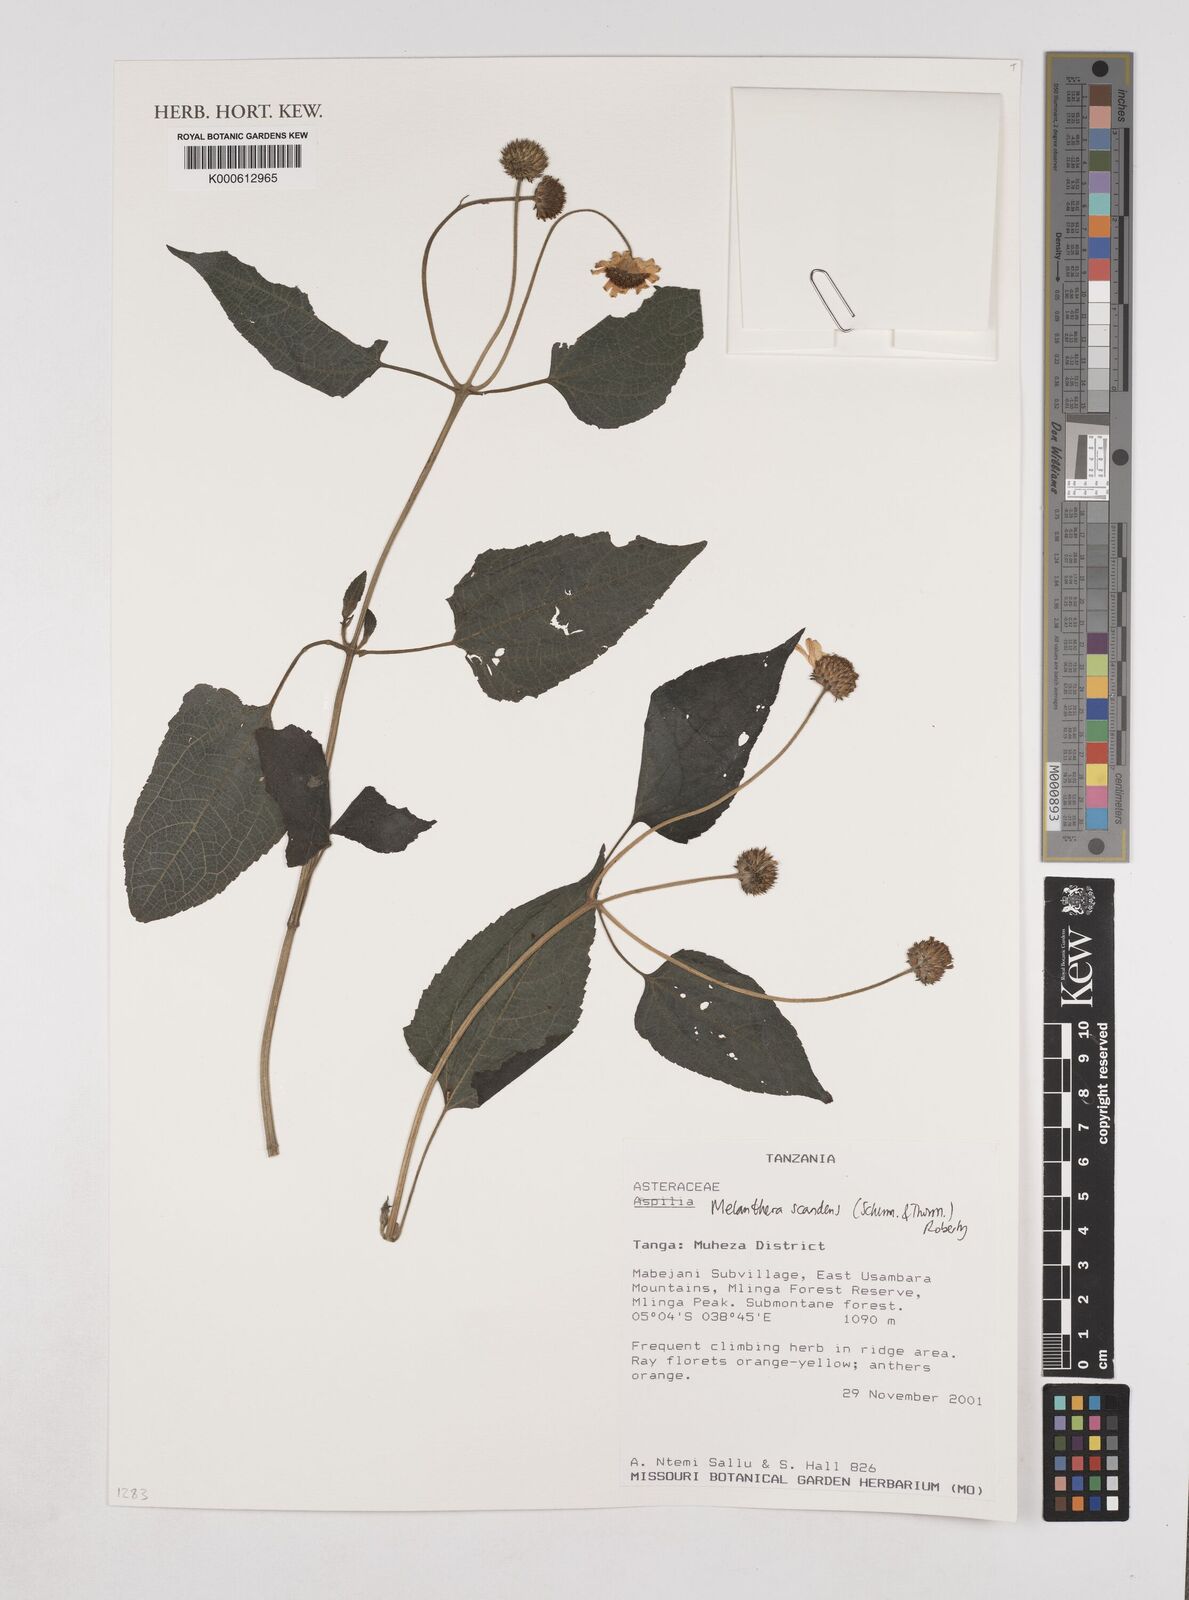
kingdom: Plantae
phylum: Tracheophyta
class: Magnoliopsida
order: Asterales
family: Asteraceae
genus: Melanthera
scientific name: Melanthera
